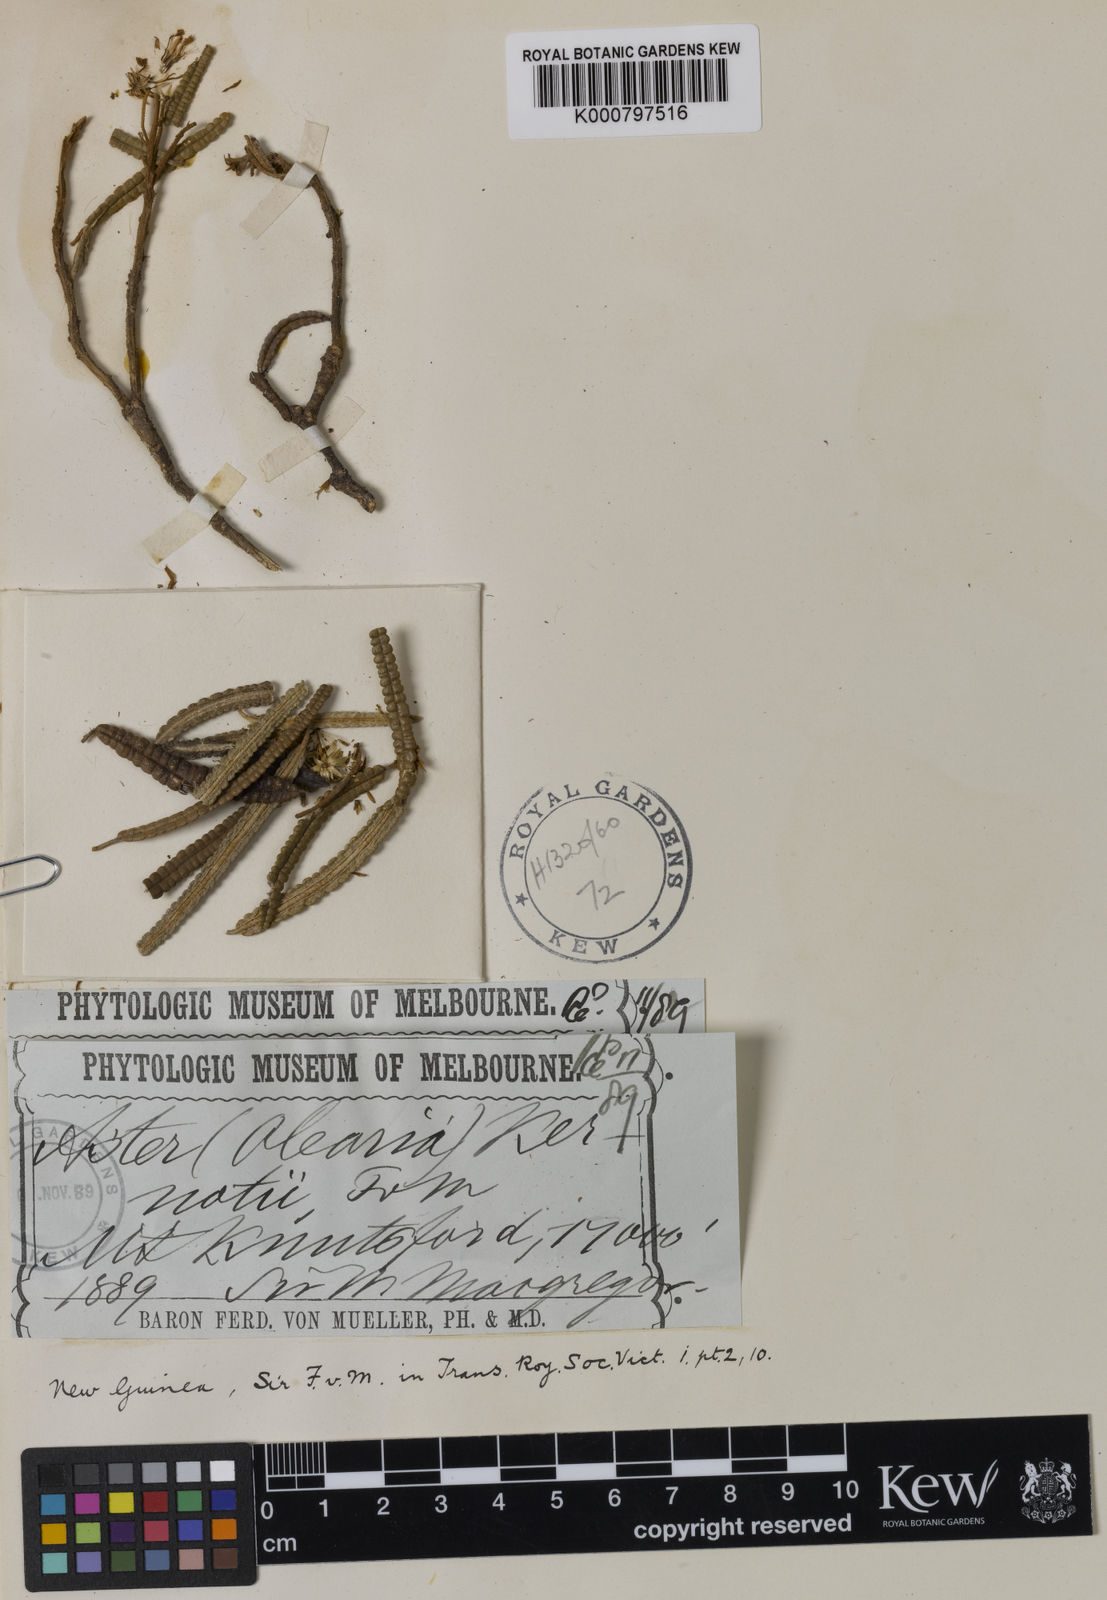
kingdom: Plantae
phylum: Tracheophyta
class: Magnoliopsida
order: Asterales
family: Asteraceae
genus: Olearia
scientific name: Olearia kernotii
